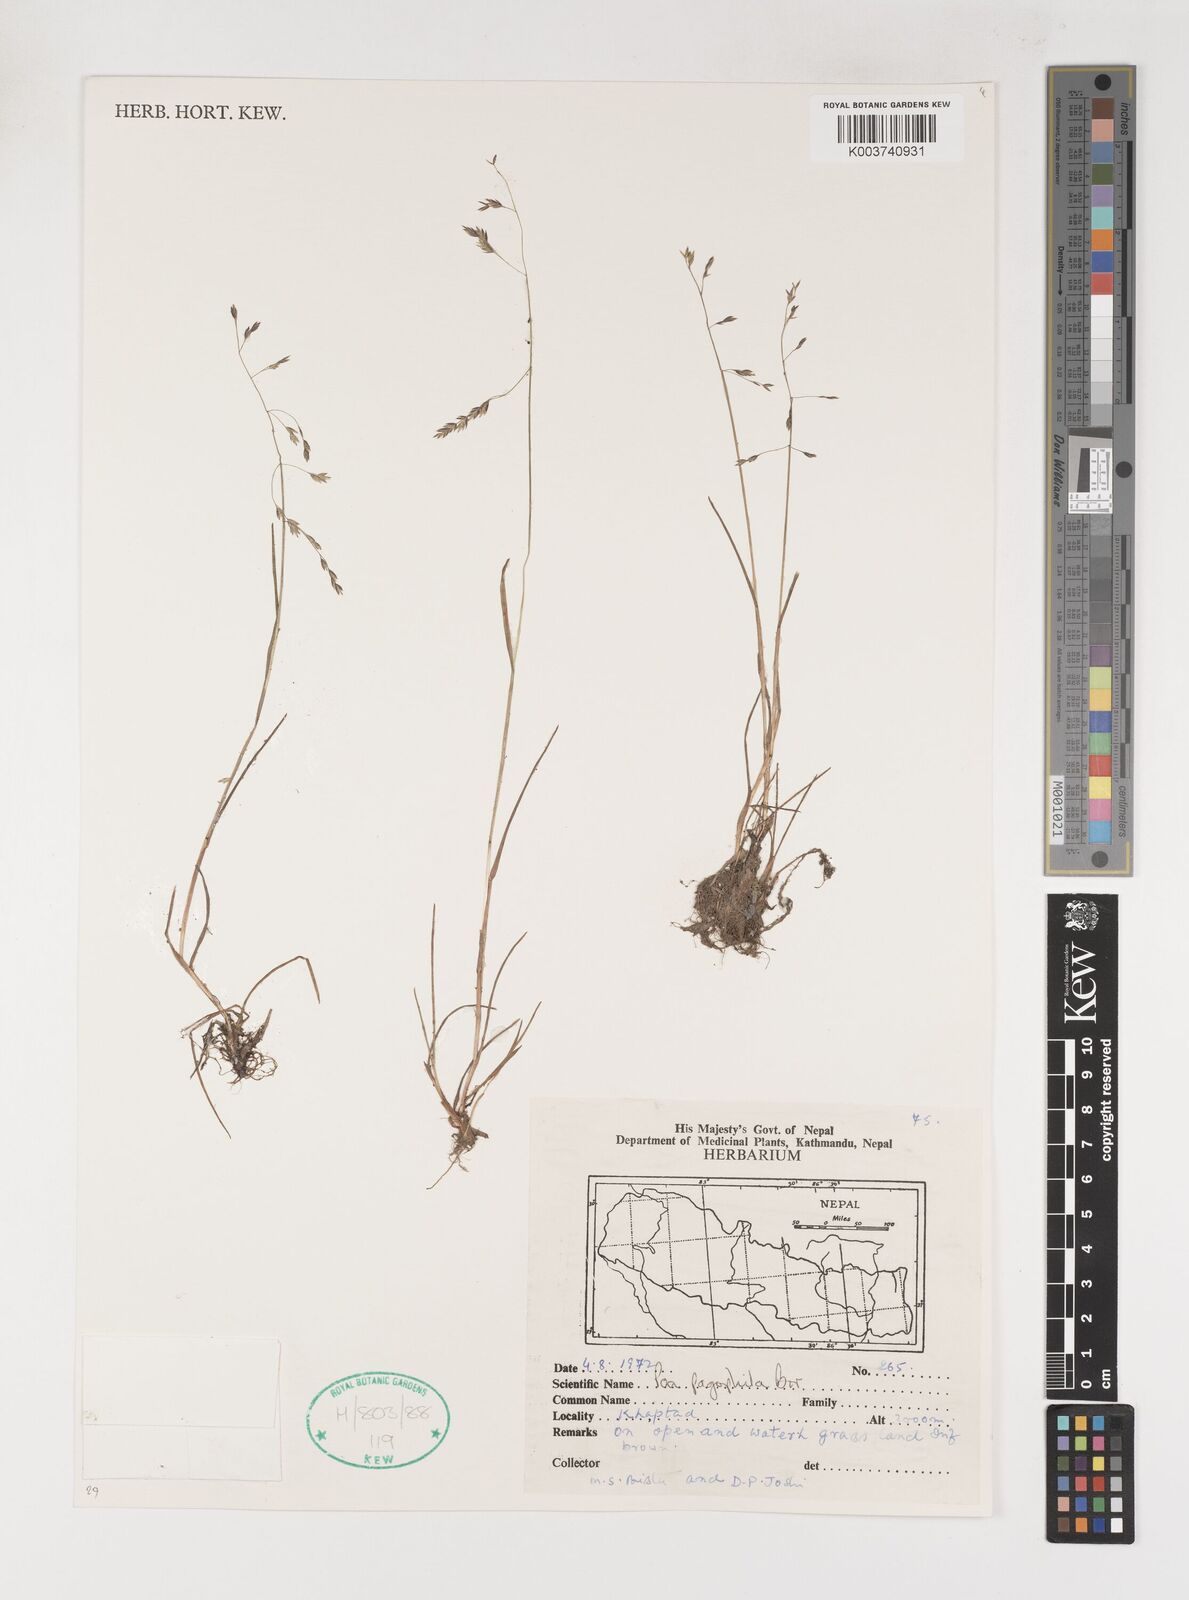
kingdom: Plantae
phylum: Tracheophyta
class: Liliopsida
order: Poales
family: Poaceae
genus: Poa
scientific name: Poa pagophila
